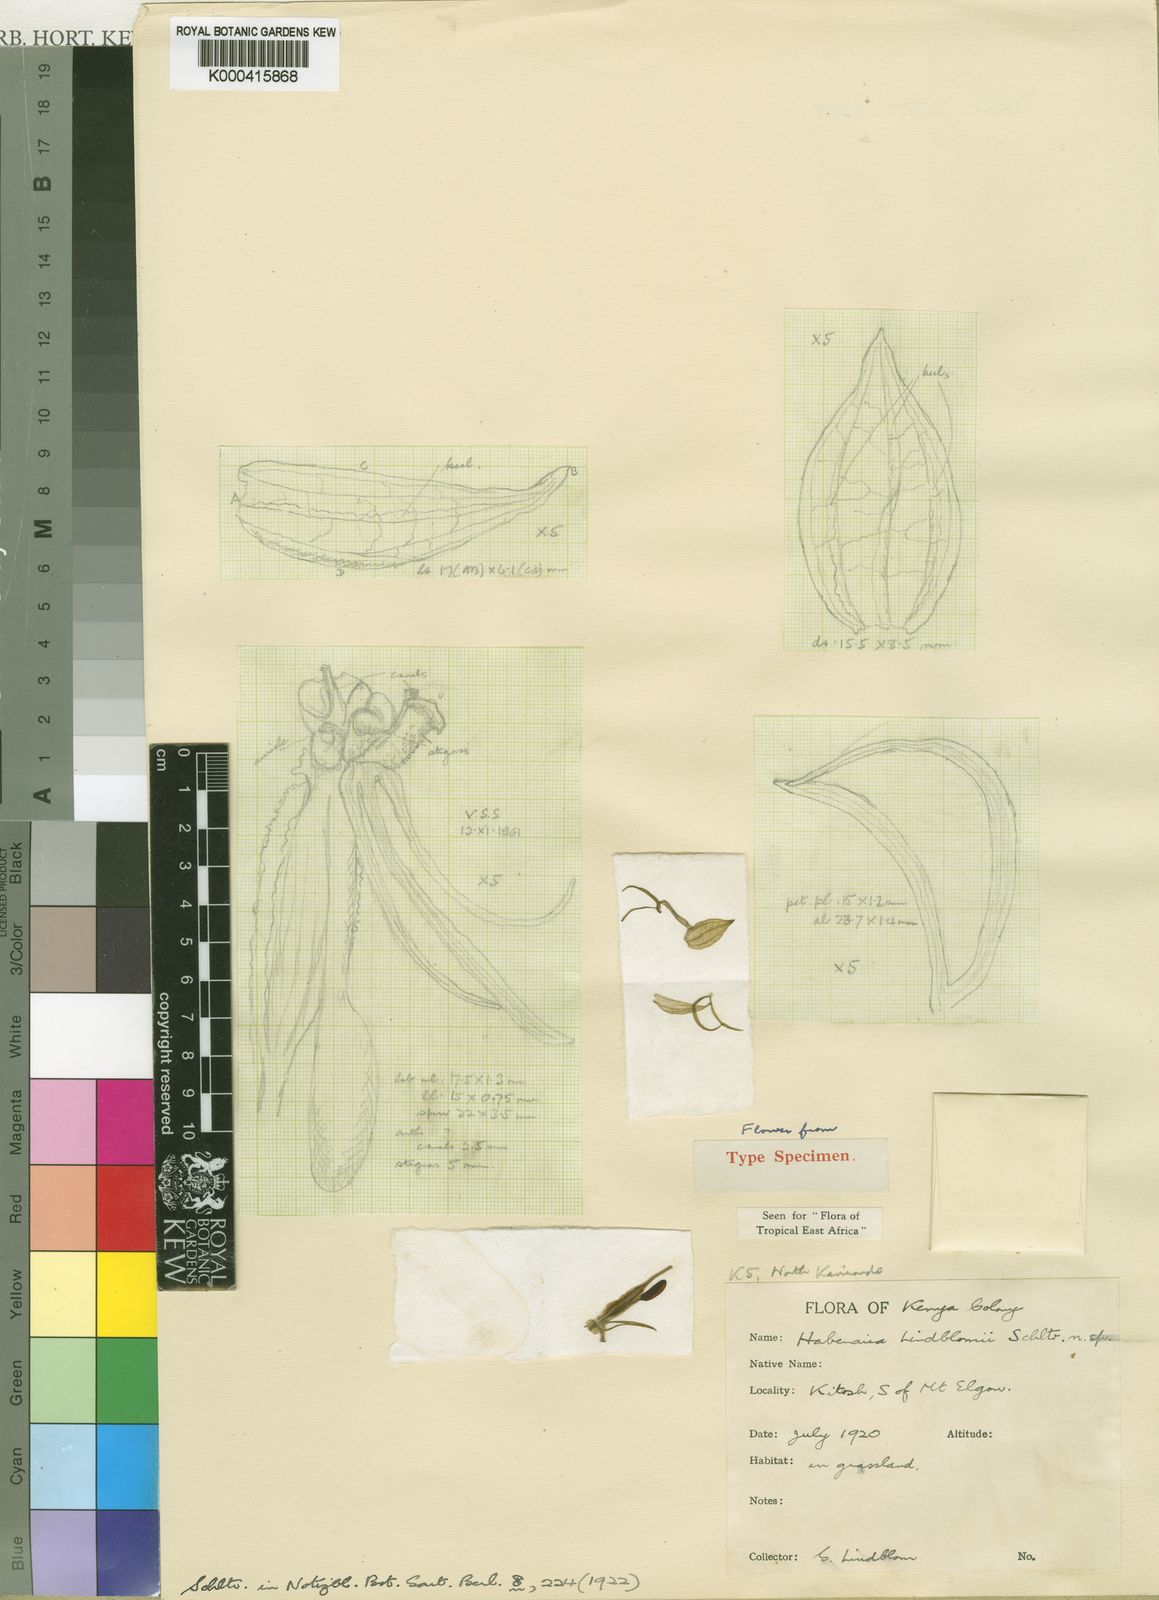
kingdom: Plantae
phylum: Tracheophyta
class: Liliopsida
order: Asparagales
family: Orchidaceae
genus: Habenaria
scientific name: Habenaria lindblomii
